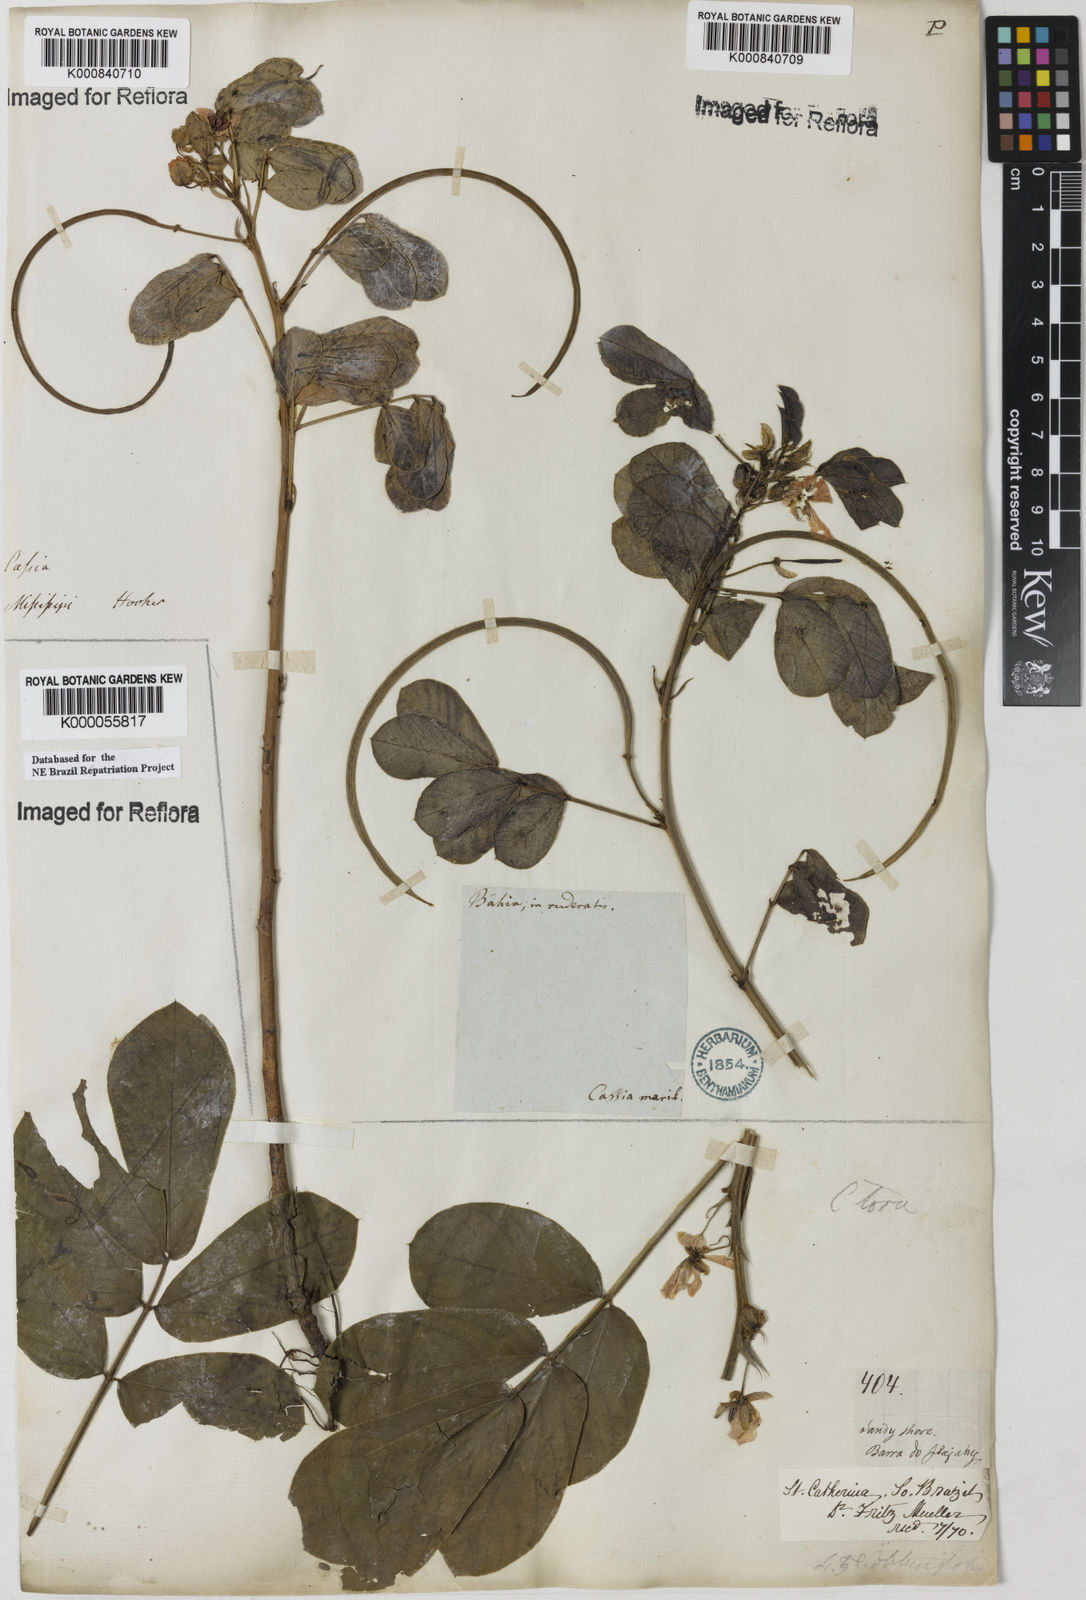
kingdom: Plantae
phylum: Tracheophyta
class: Magnoliopsida
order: Fabales
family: Fabaceae
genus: Senna
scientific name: Senna obtusifolia
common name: Java-bean
